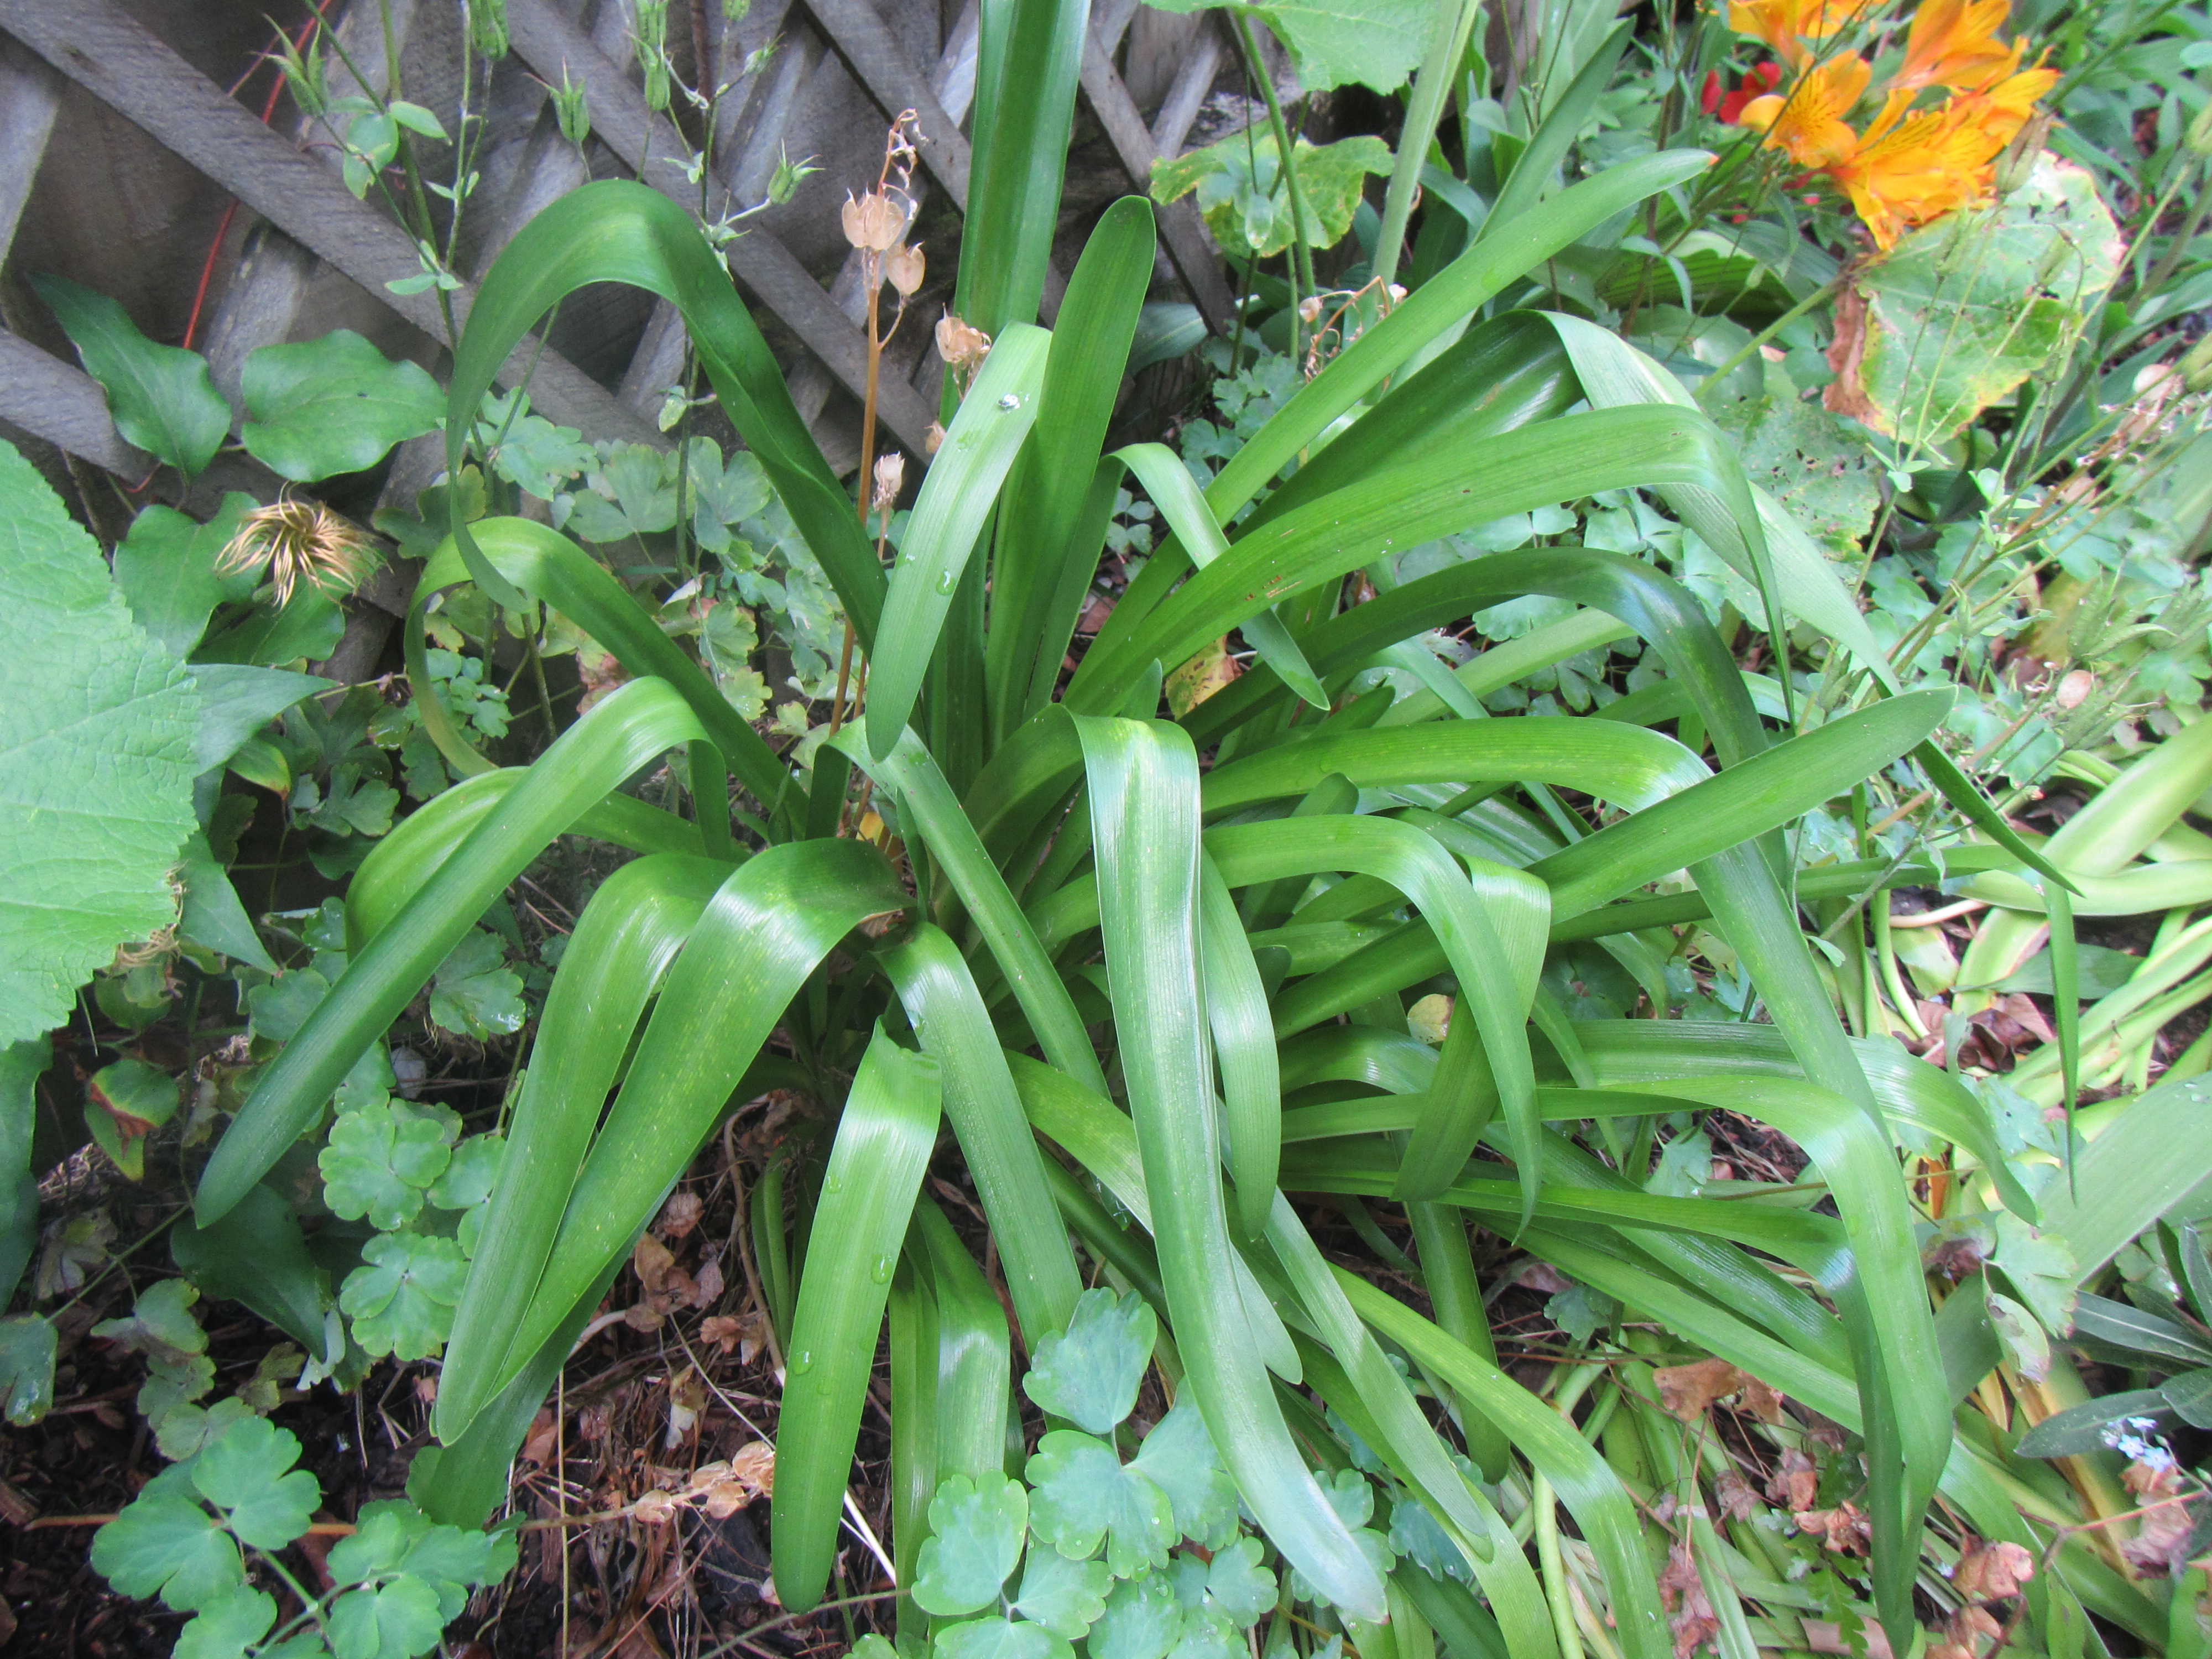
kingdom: Plantae
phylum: Tracheophyta
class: Liliopsida
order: Asparagales
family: Amaryllidaceae
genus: Agapanthus
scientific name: Agapanthus inapertus
